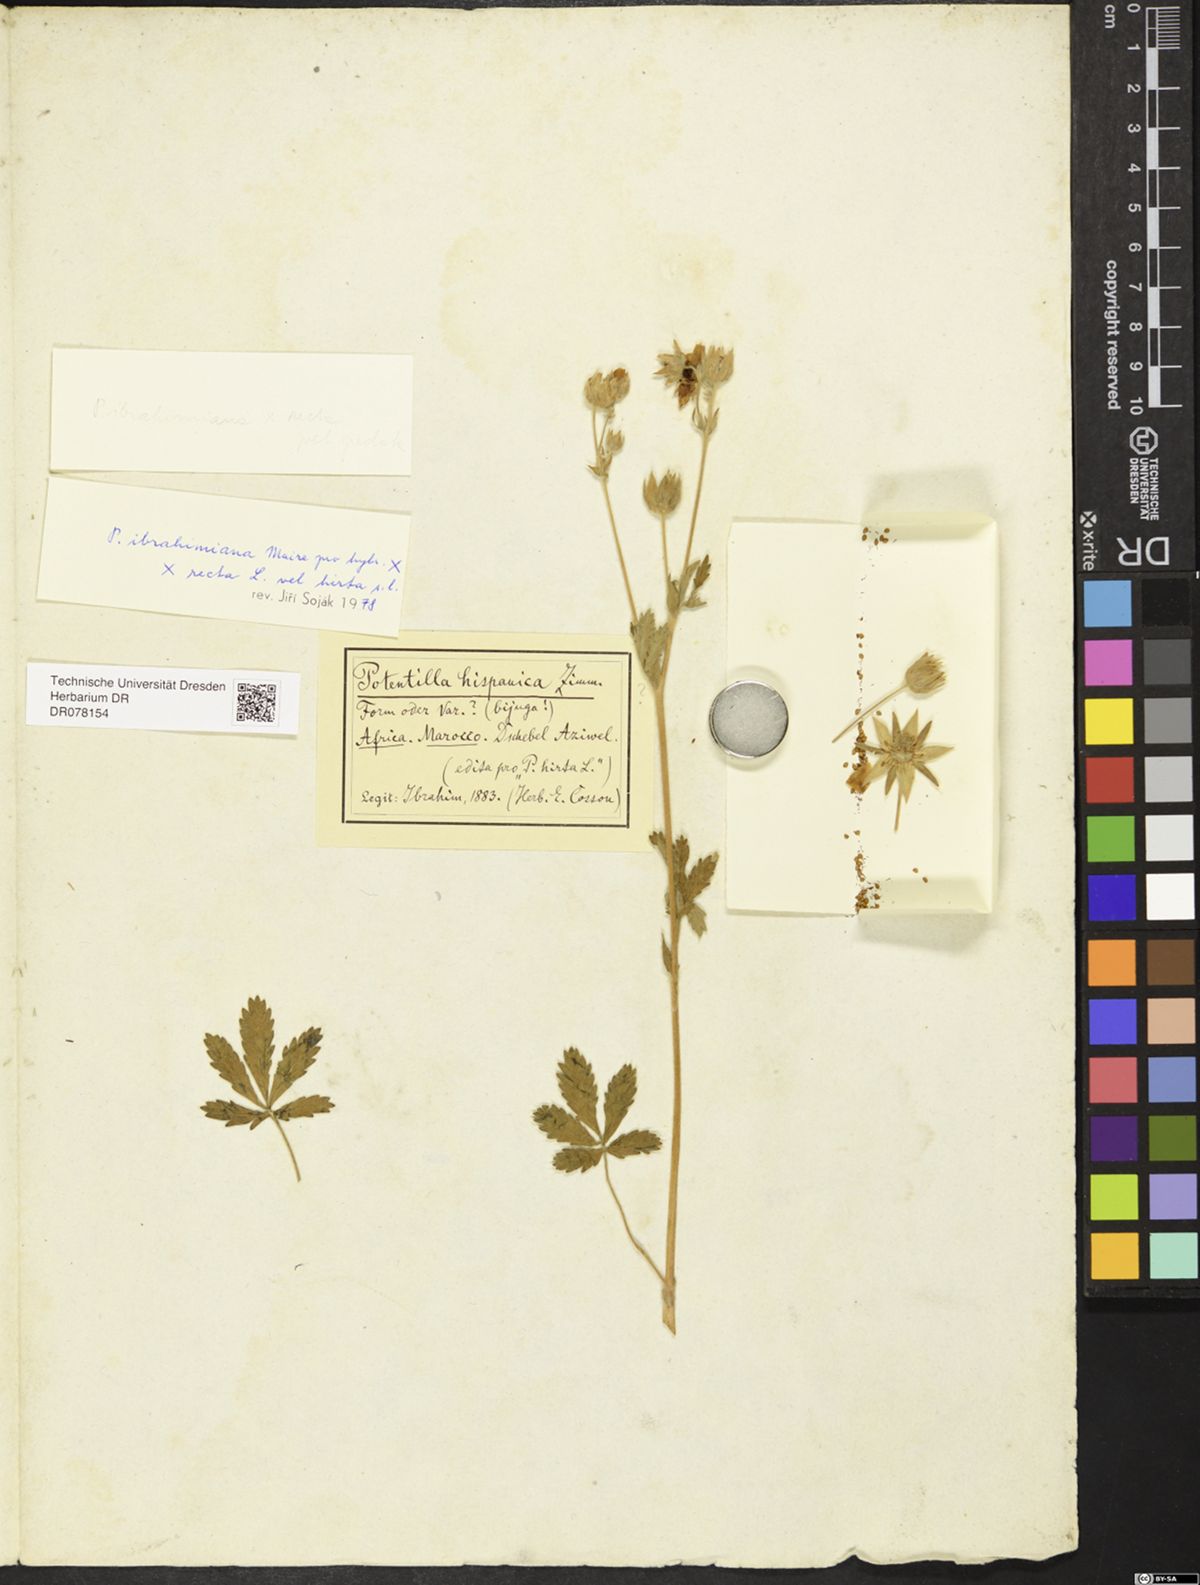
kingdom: Plantae
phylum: Tracheophyta
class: Magnoliopsida
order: Rosales
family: Rosaceae
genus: Potentilla
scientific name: Potentilla
